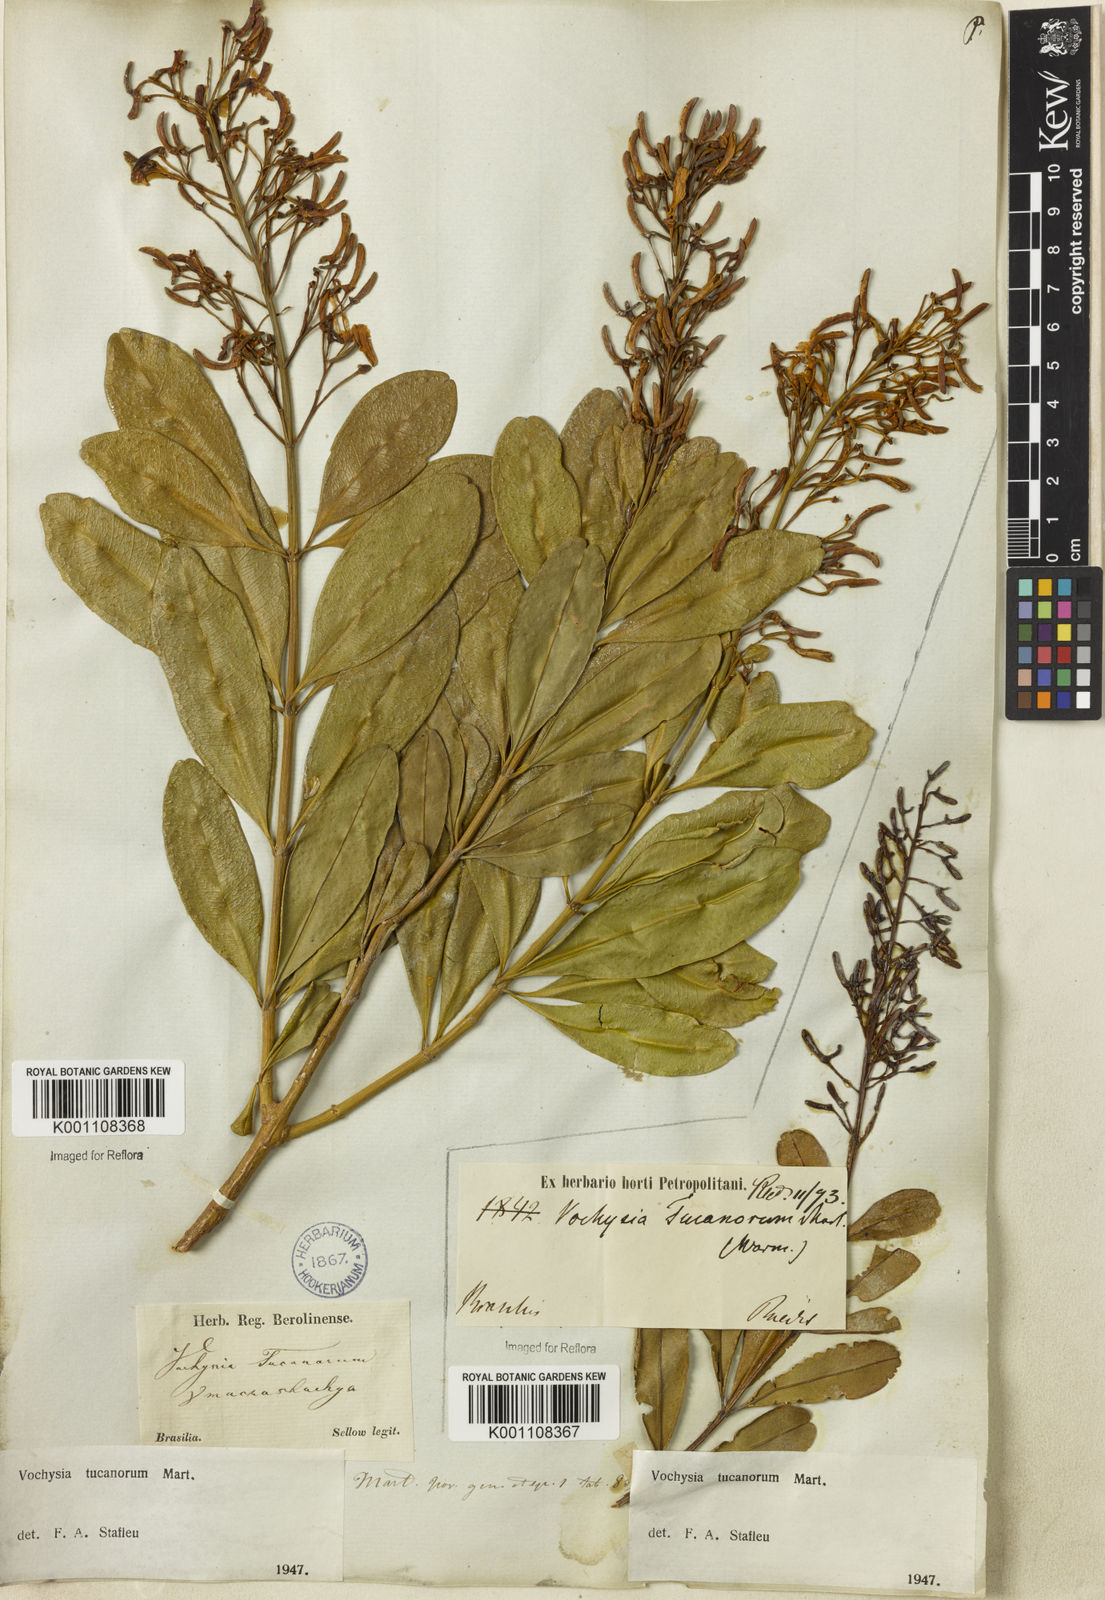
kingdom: Plantae
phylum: Tracheophyta
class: Magnoliopsida
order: Myrtales
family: Vochysiaceae
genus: Vochysia
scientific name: Vochysia tucanorum
